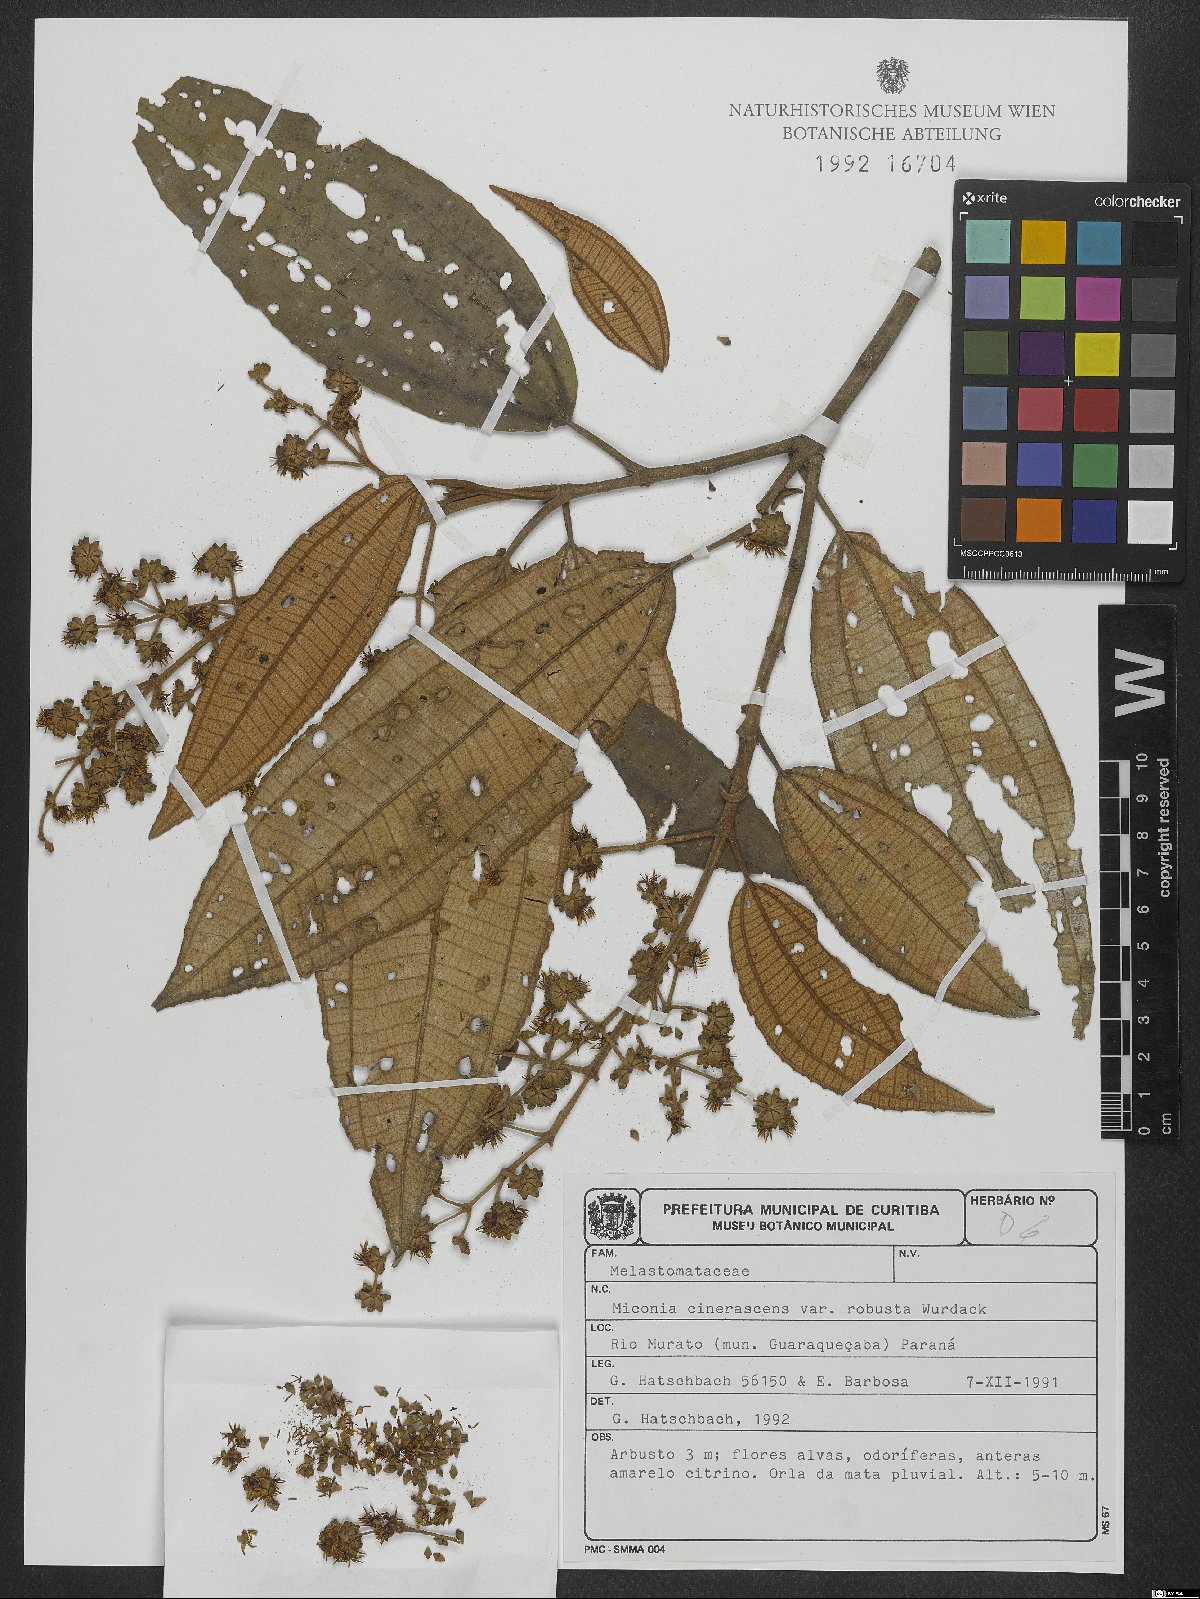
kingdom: Plantae
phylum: Tracheophyta
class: Magnoliopsida
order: Myrtales
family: Melastomataceae
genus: Miconia
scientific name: Miconia cinerascens
